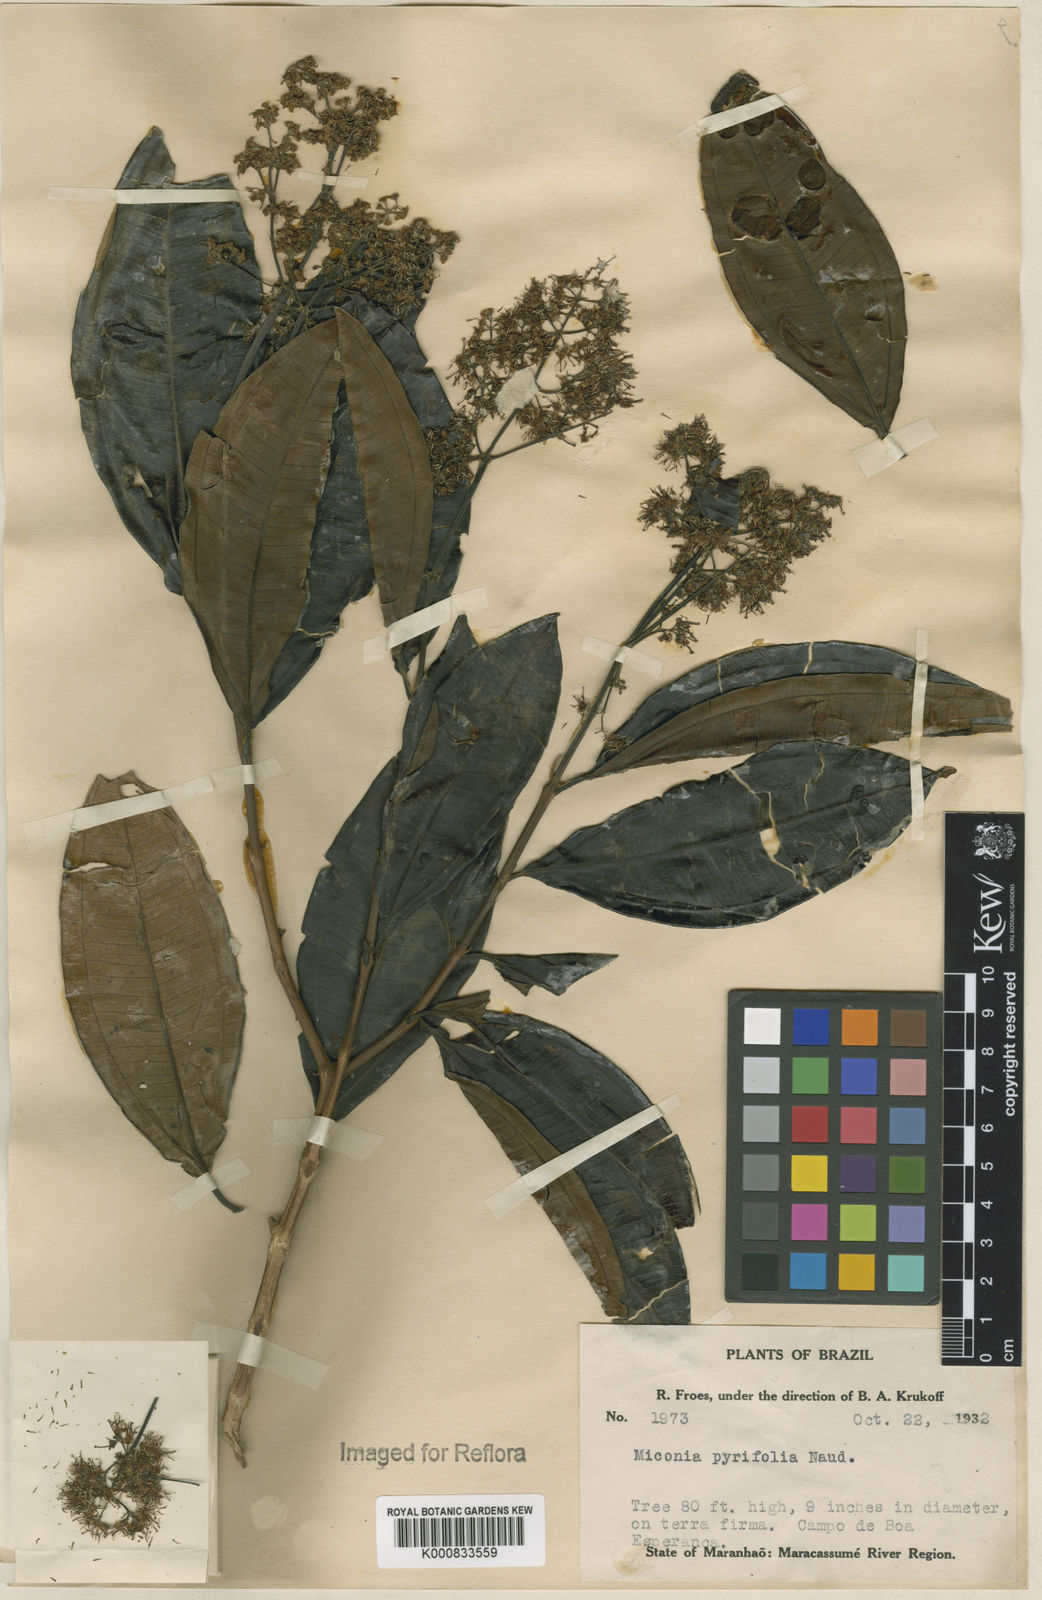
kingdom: Plantae
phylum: Tracheophyta
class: Magnoliopsida
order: Myrtales
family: Melastomataceae
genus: Miconia
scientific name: Miconia pyrifolia
